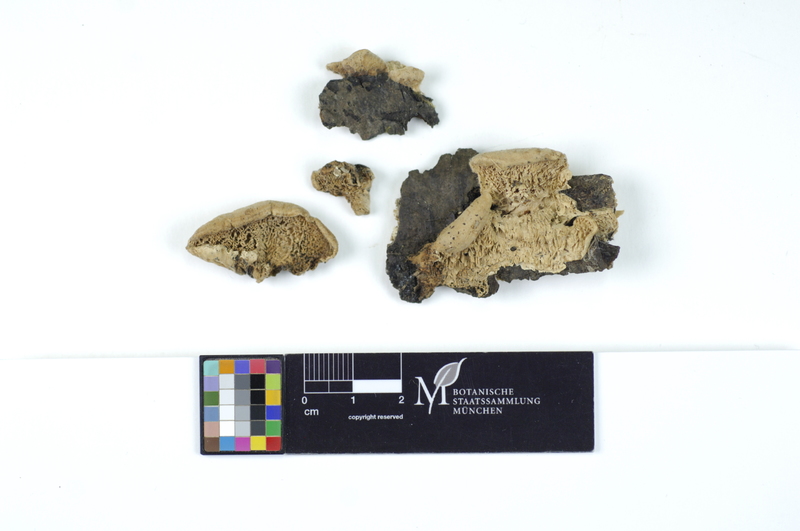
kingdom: Fungi
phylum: Basidiomycota
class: Agaricomycetes
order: Polyporales
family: Podoscyphaceae
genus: Abortiporus
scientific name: Abortiporus biennis
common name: Blushing rosette
